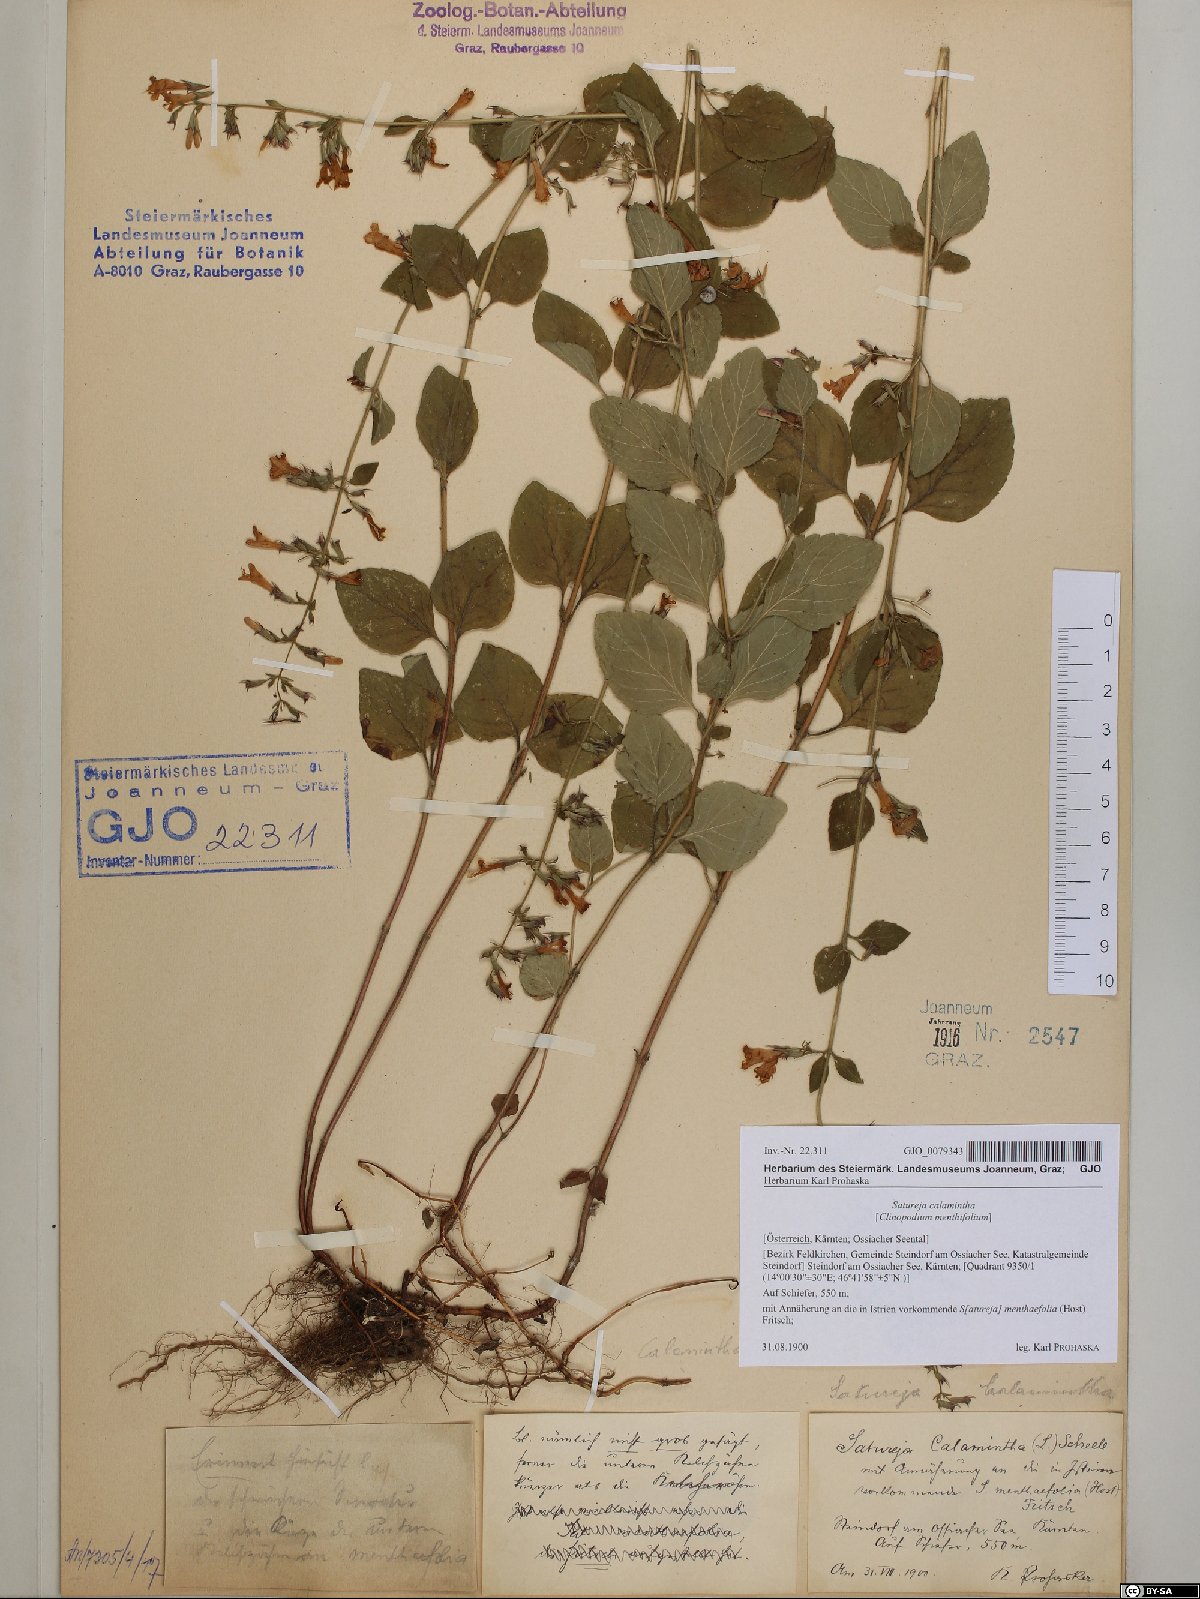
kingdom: Plantae
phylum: Tracheophyta
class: Magnoliopsida
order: Lamiales
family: Lamiaceae
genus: Clinopodium
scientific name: Clinopodium menthifolium
